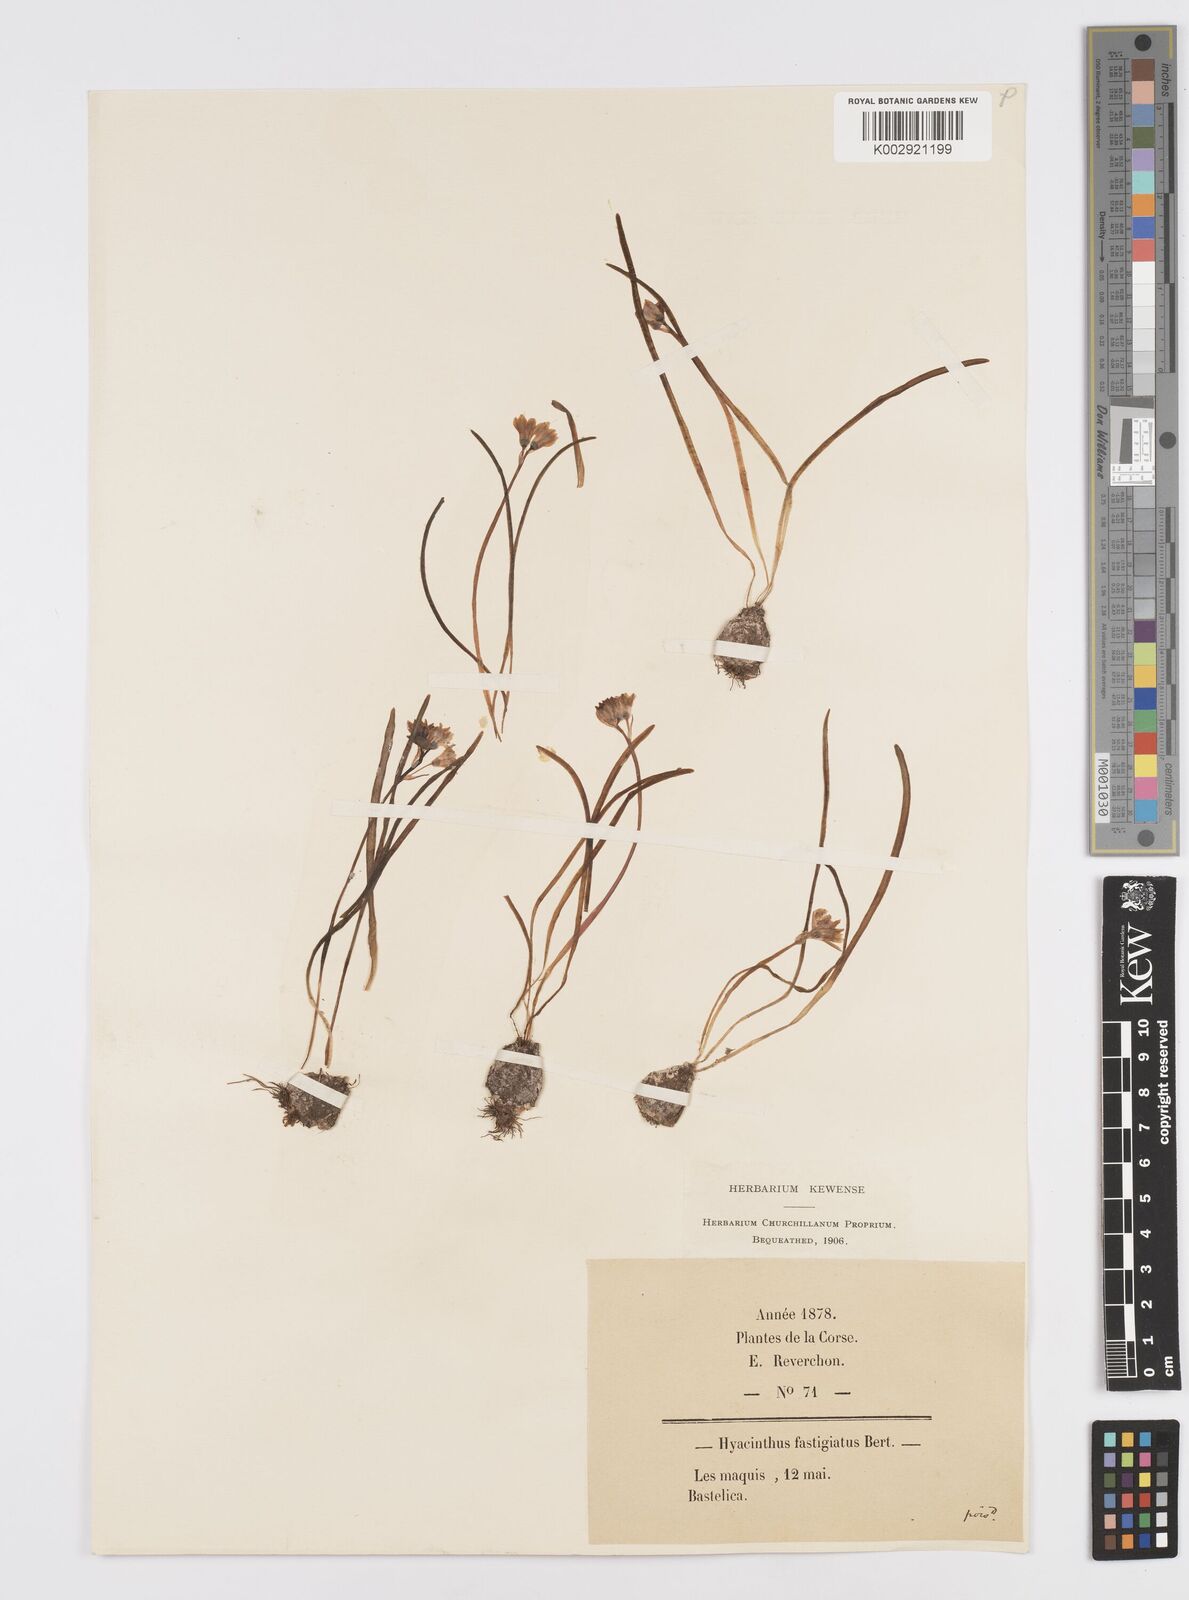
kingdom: Plantae
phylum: Tracheophyta
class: Liliopsida
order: Asparagales
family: Asparagaceae
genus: Brimeura
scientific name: Brimeura fastigiata
